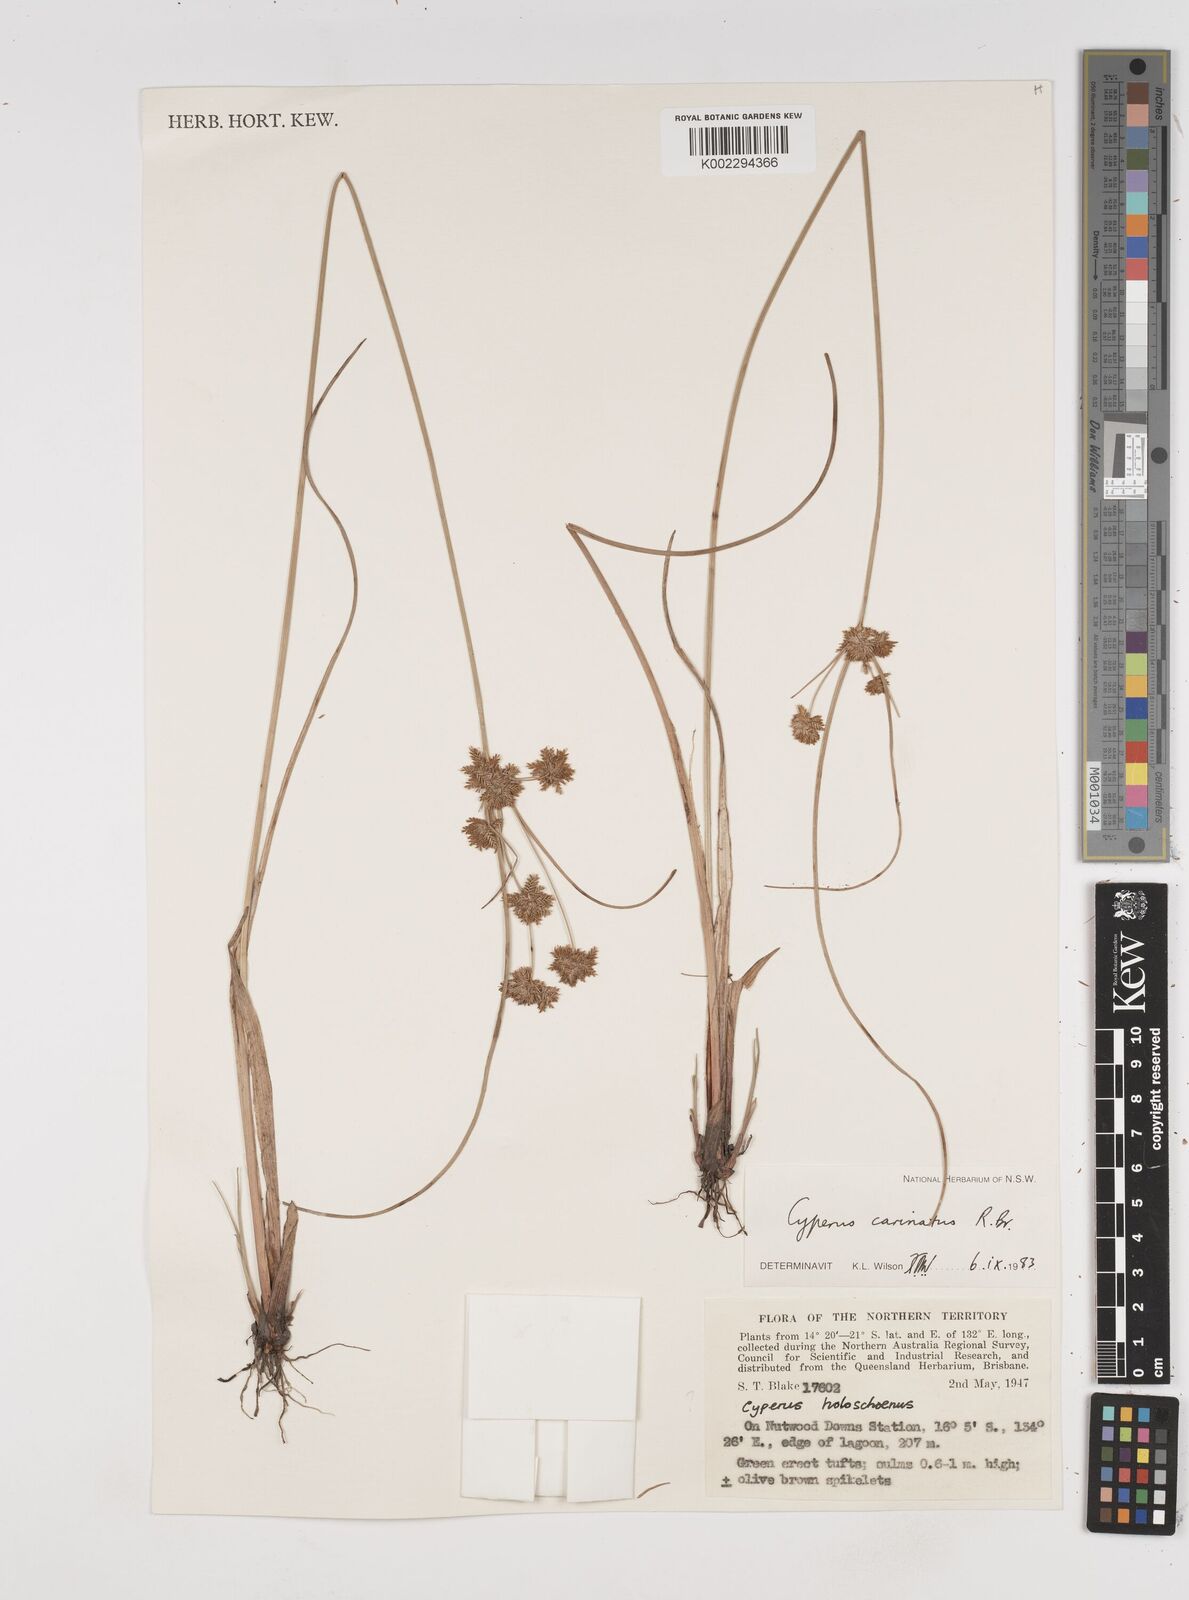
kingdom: Plantae
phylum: Tracheophyta
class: Liliopsida
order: Poales
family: Cyperaceae
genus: Cyperus
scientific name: Cyperus carinatus
